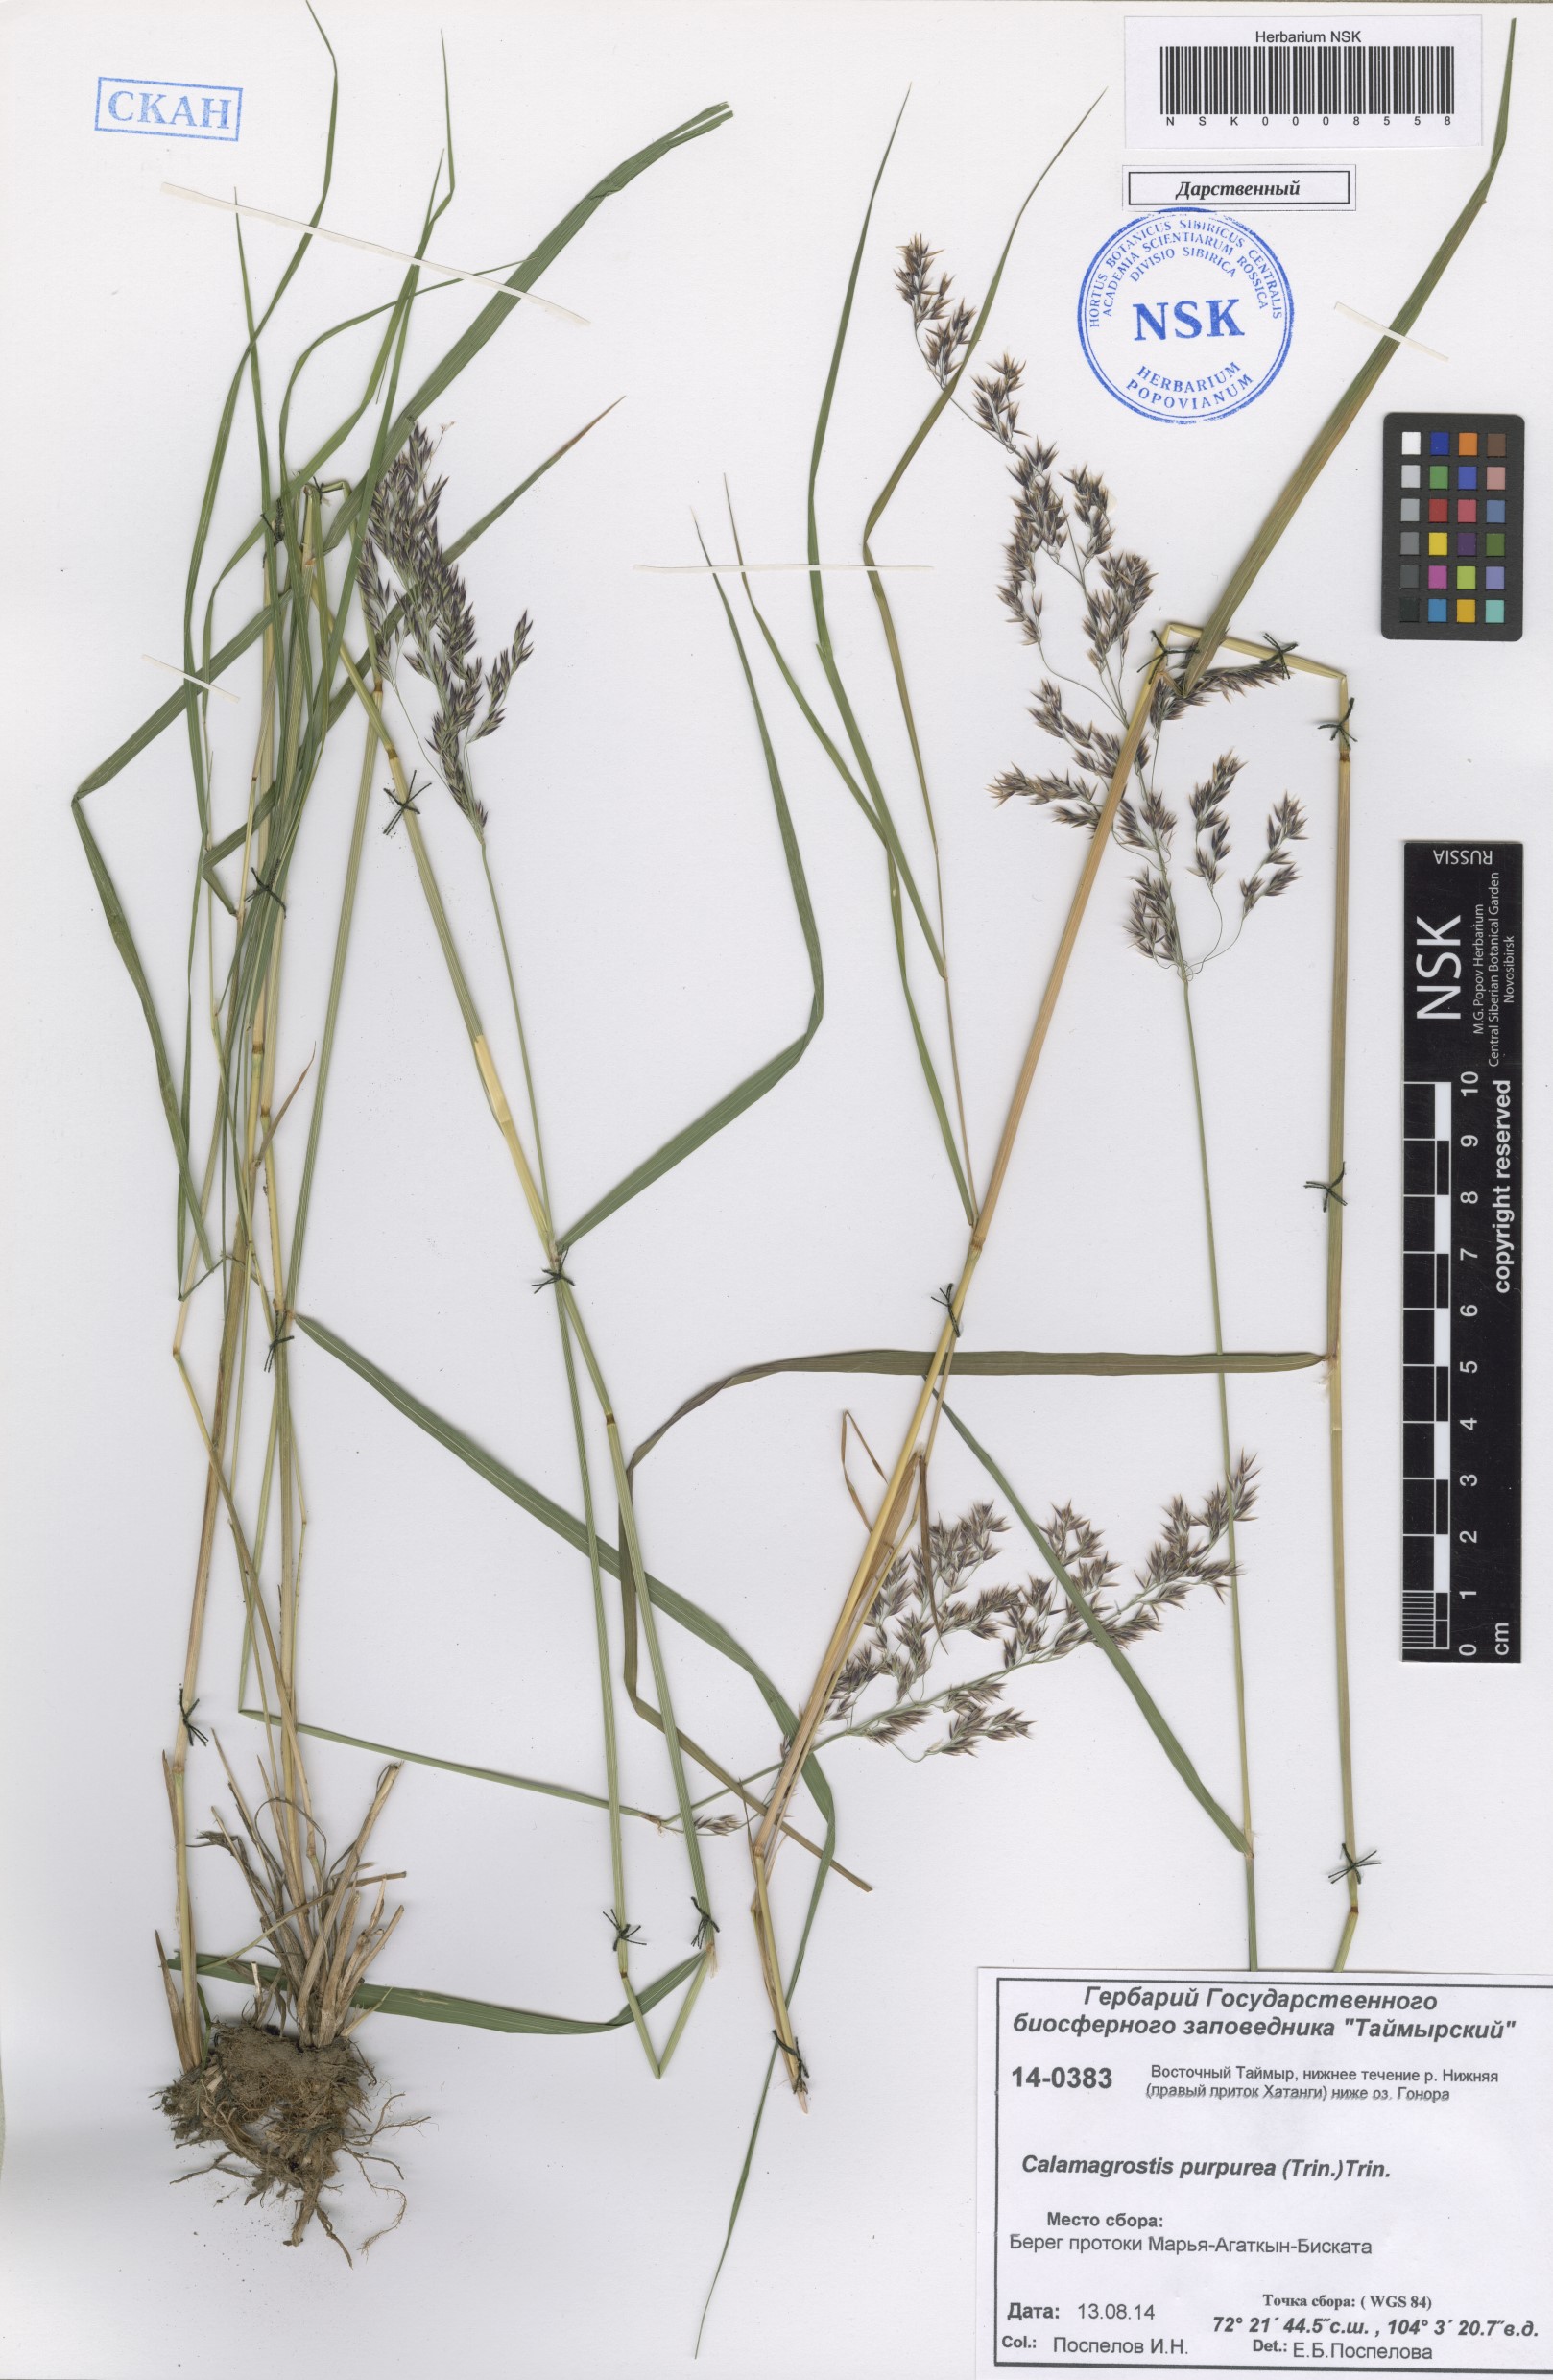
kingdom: Plantae
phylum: Tracheophyta
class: Liliopsida
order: Poales
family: Poaceae
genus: Calamagrostis
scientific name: Calamagrostis purpurea
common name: Scandinavian small-reed
